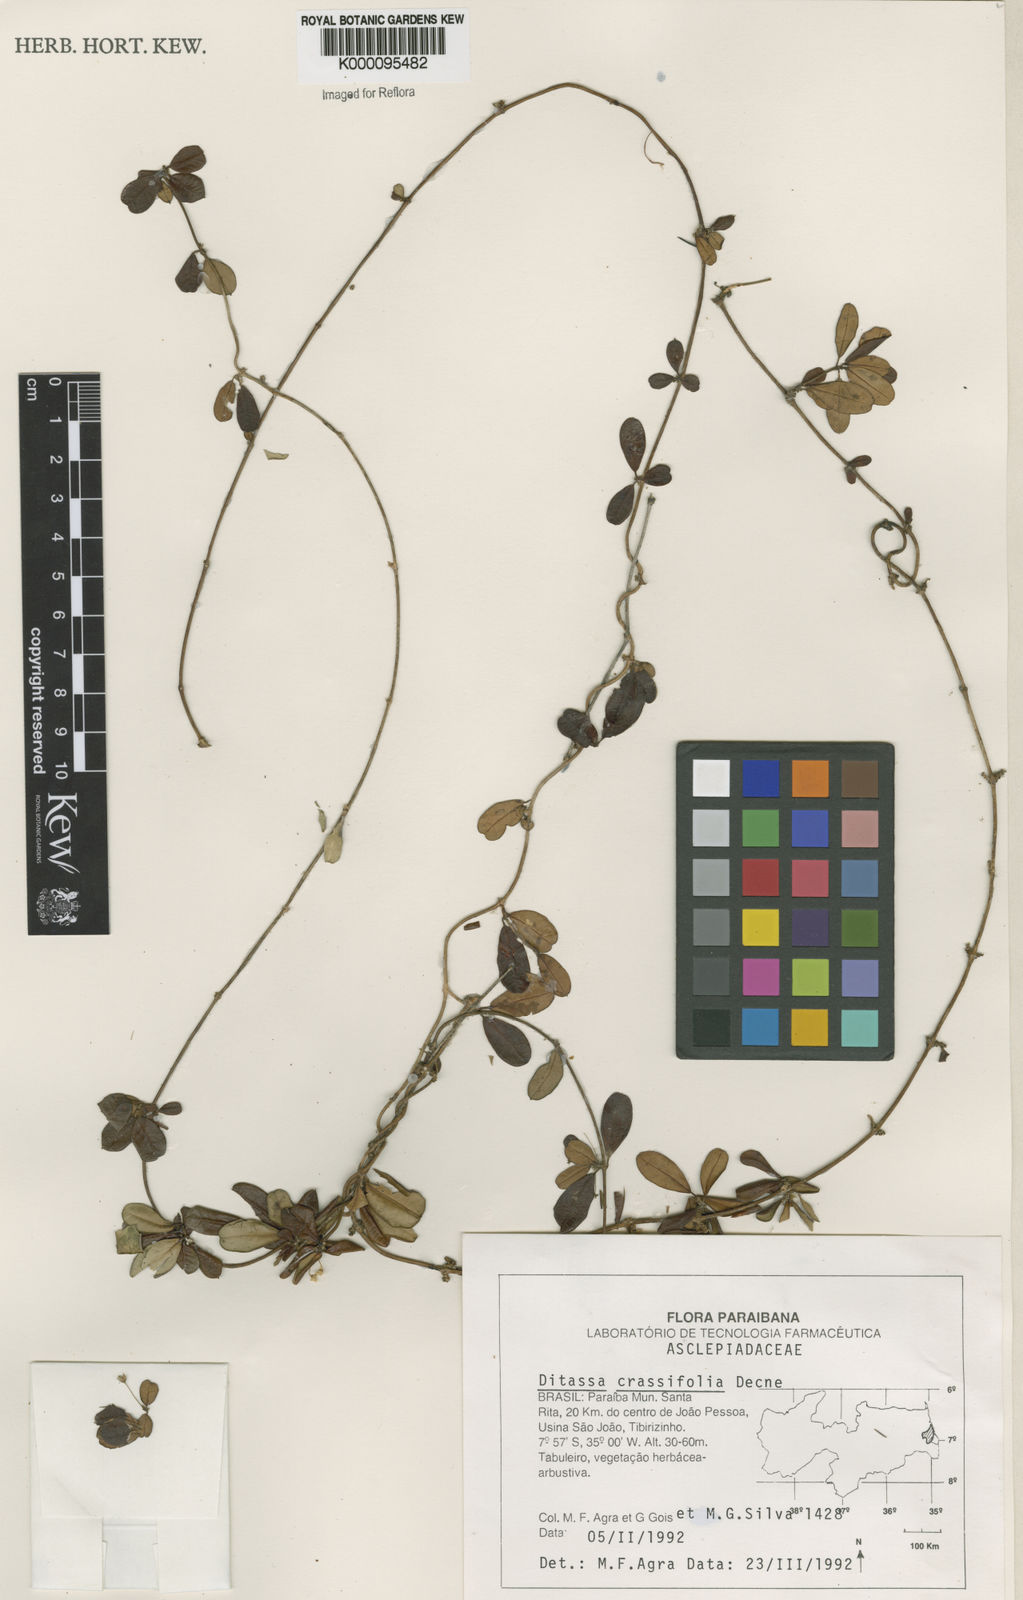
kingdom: Plantae
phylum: Tracheophyta
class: Magnoliopsida
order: Gentianales
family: Apocynaceae
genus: Ditassa
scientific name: Ditassa crassifolia
